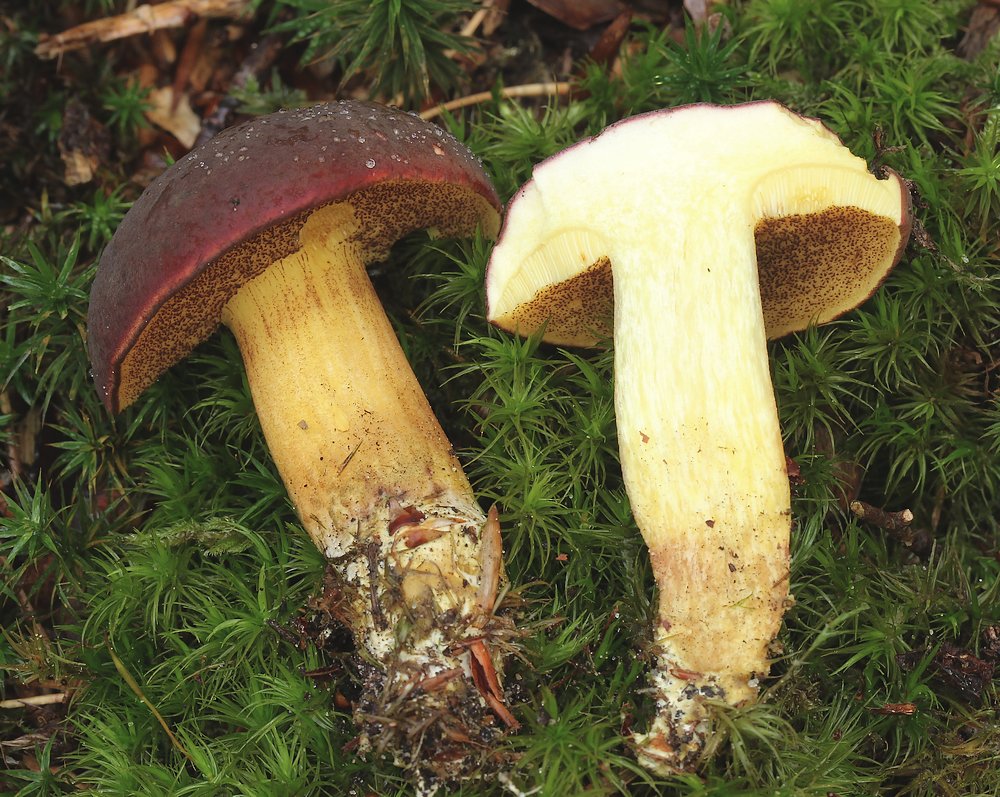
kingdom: Fungi
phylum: Basidiomycota
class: Agaricomycetes
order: Boletales
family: Boletaceae
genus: Xerocomellus
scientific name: Xerocomellus pruinatus
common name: dugget rørhat
